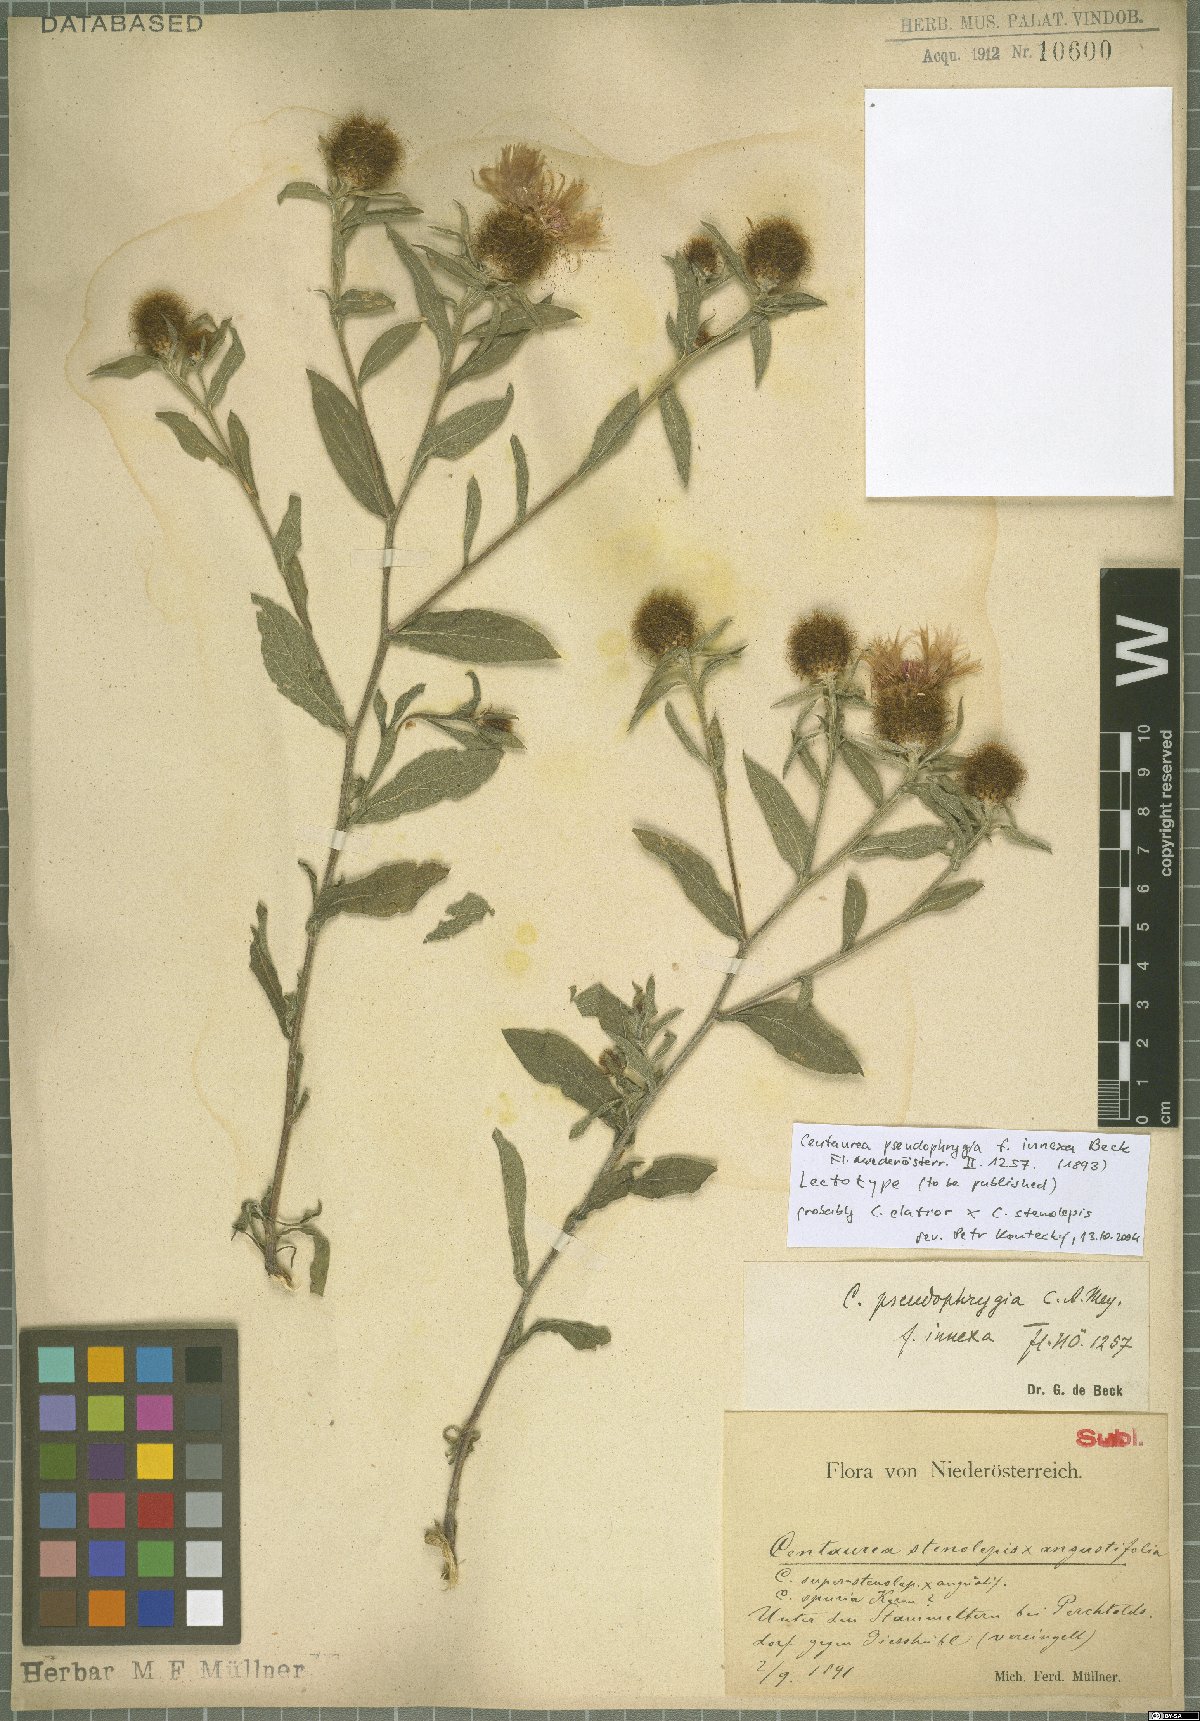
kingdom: Plantae
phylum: Tracheophyta
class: Magnoliopsida
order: Asterales
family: Asteraceae
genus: Centaurea
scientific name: Centaurea pseudophrygia
